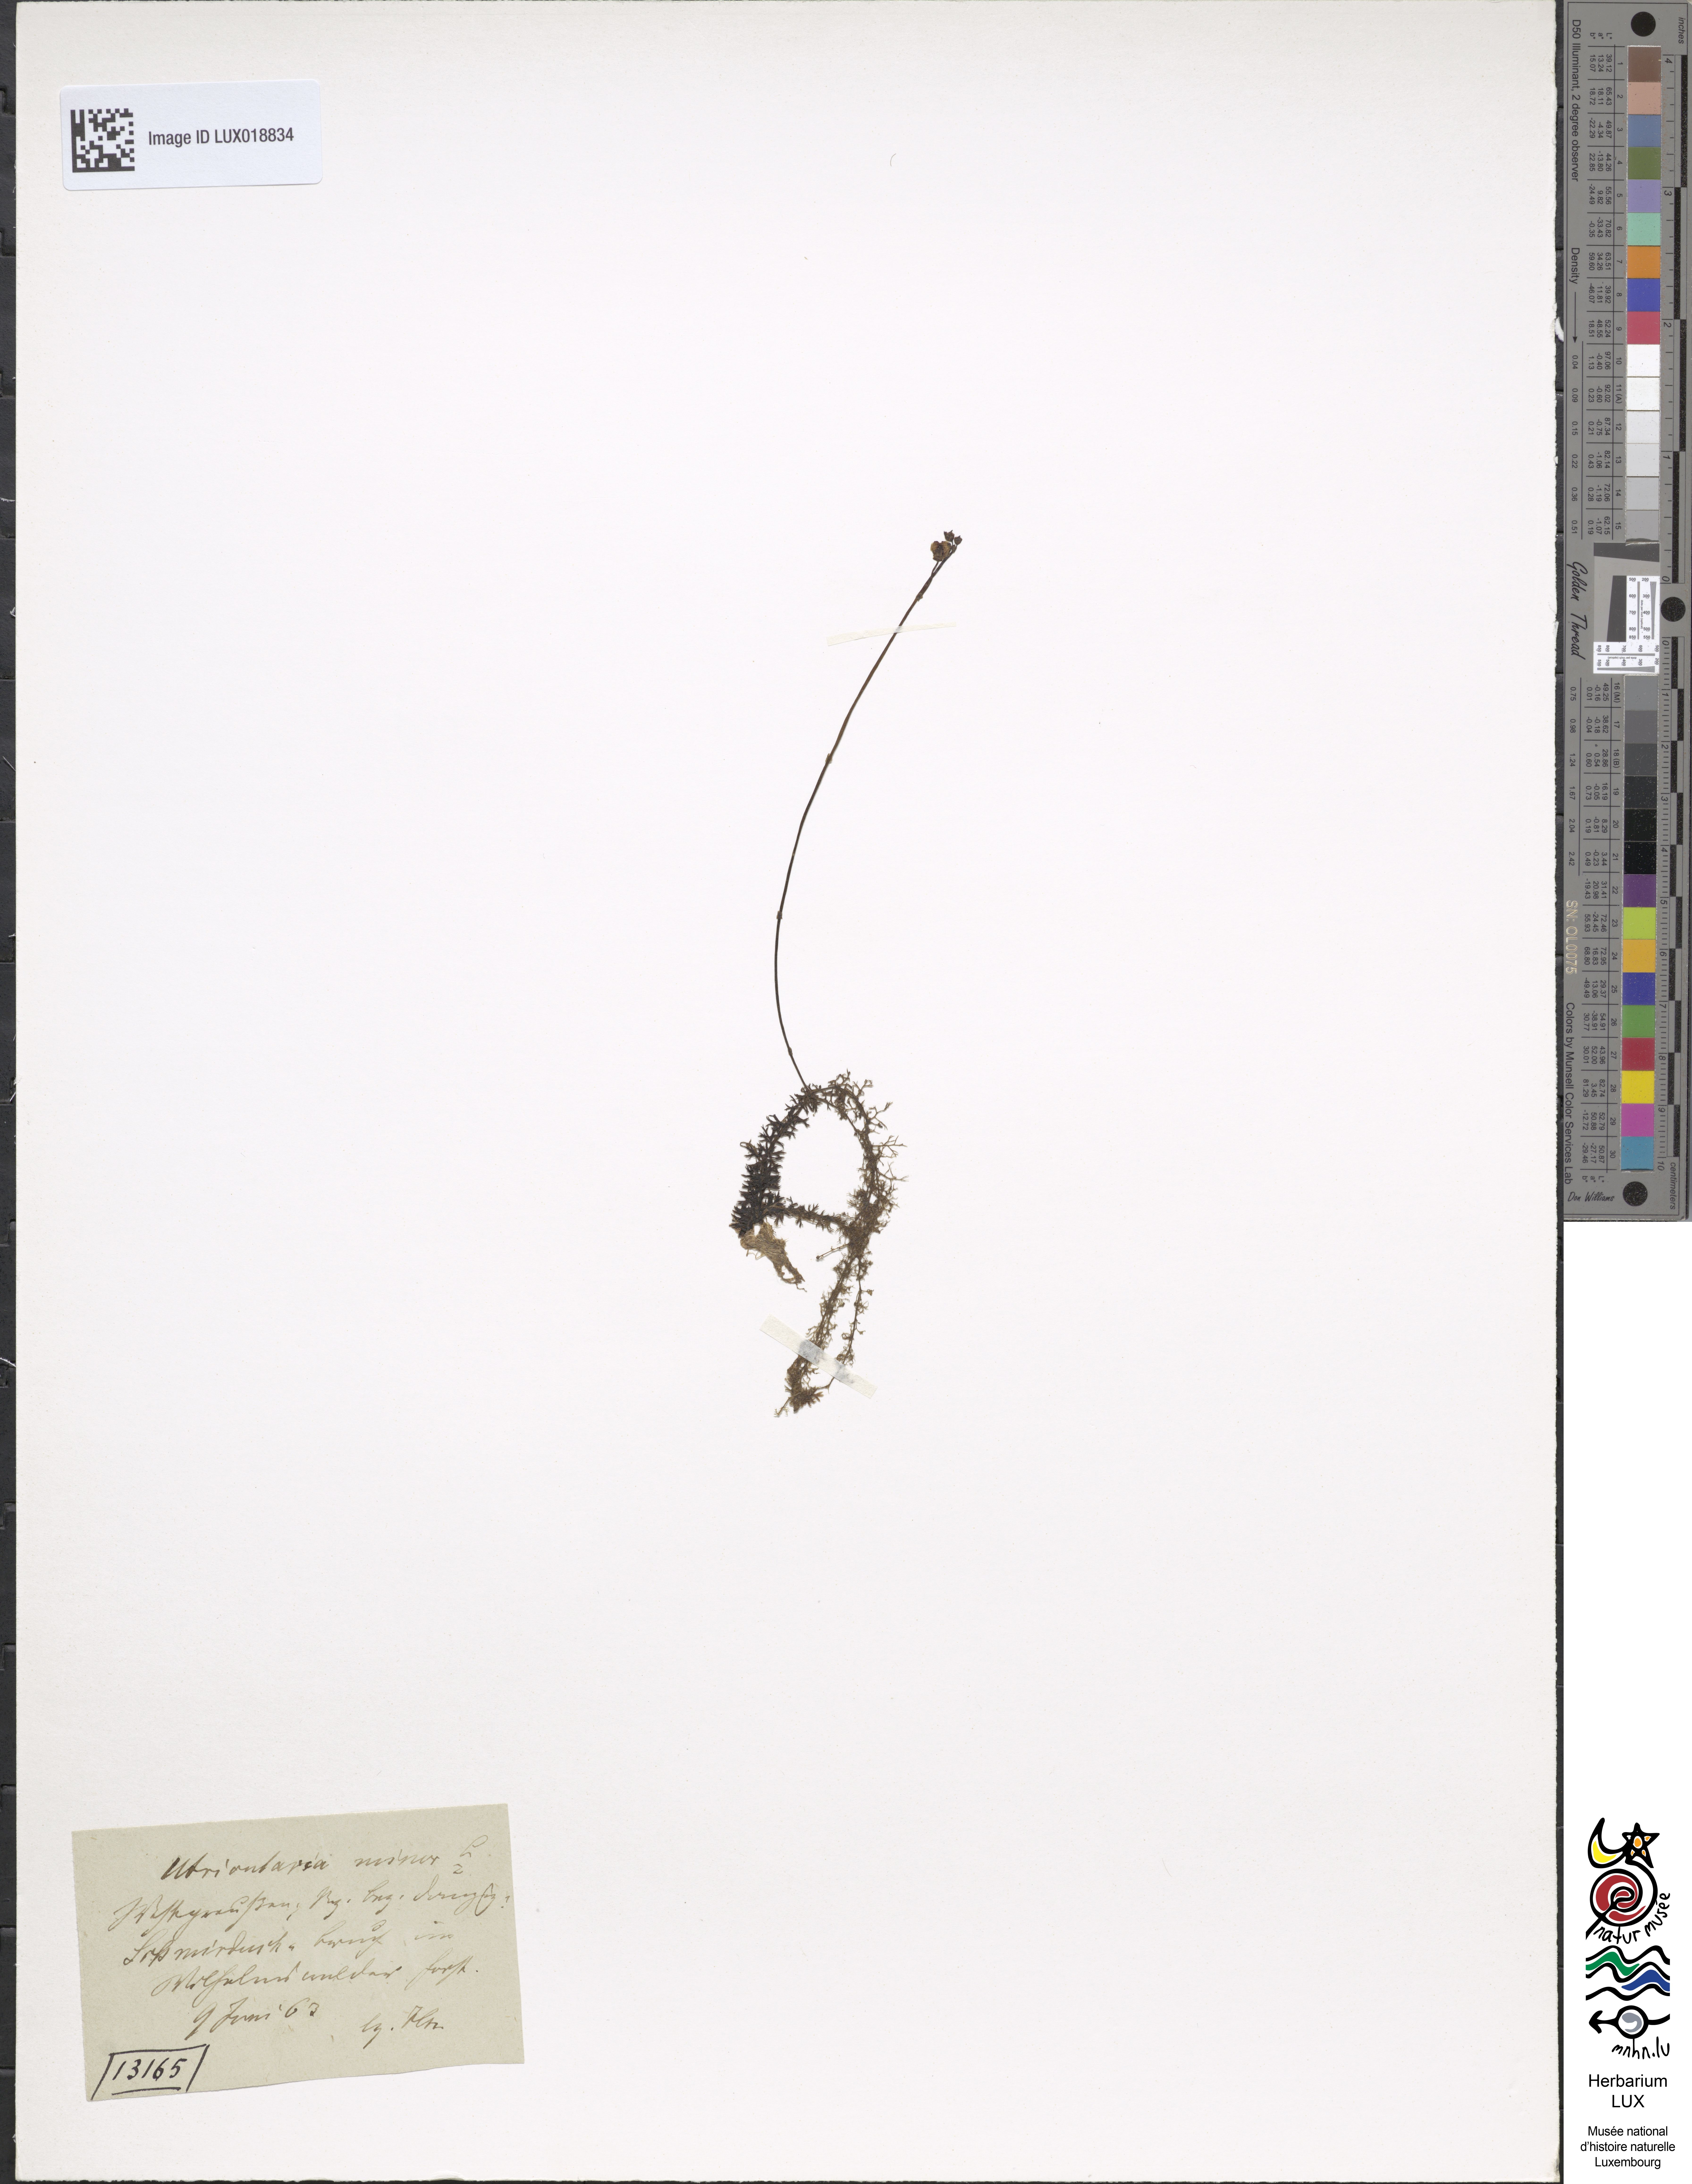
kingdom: Plantae
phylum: Tracheophyta
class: Magnoliopsida
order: Lamiales
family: Lentibulariaceae
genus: Utricularia
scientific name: Utricularia minor
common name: Lesser bladderwort
